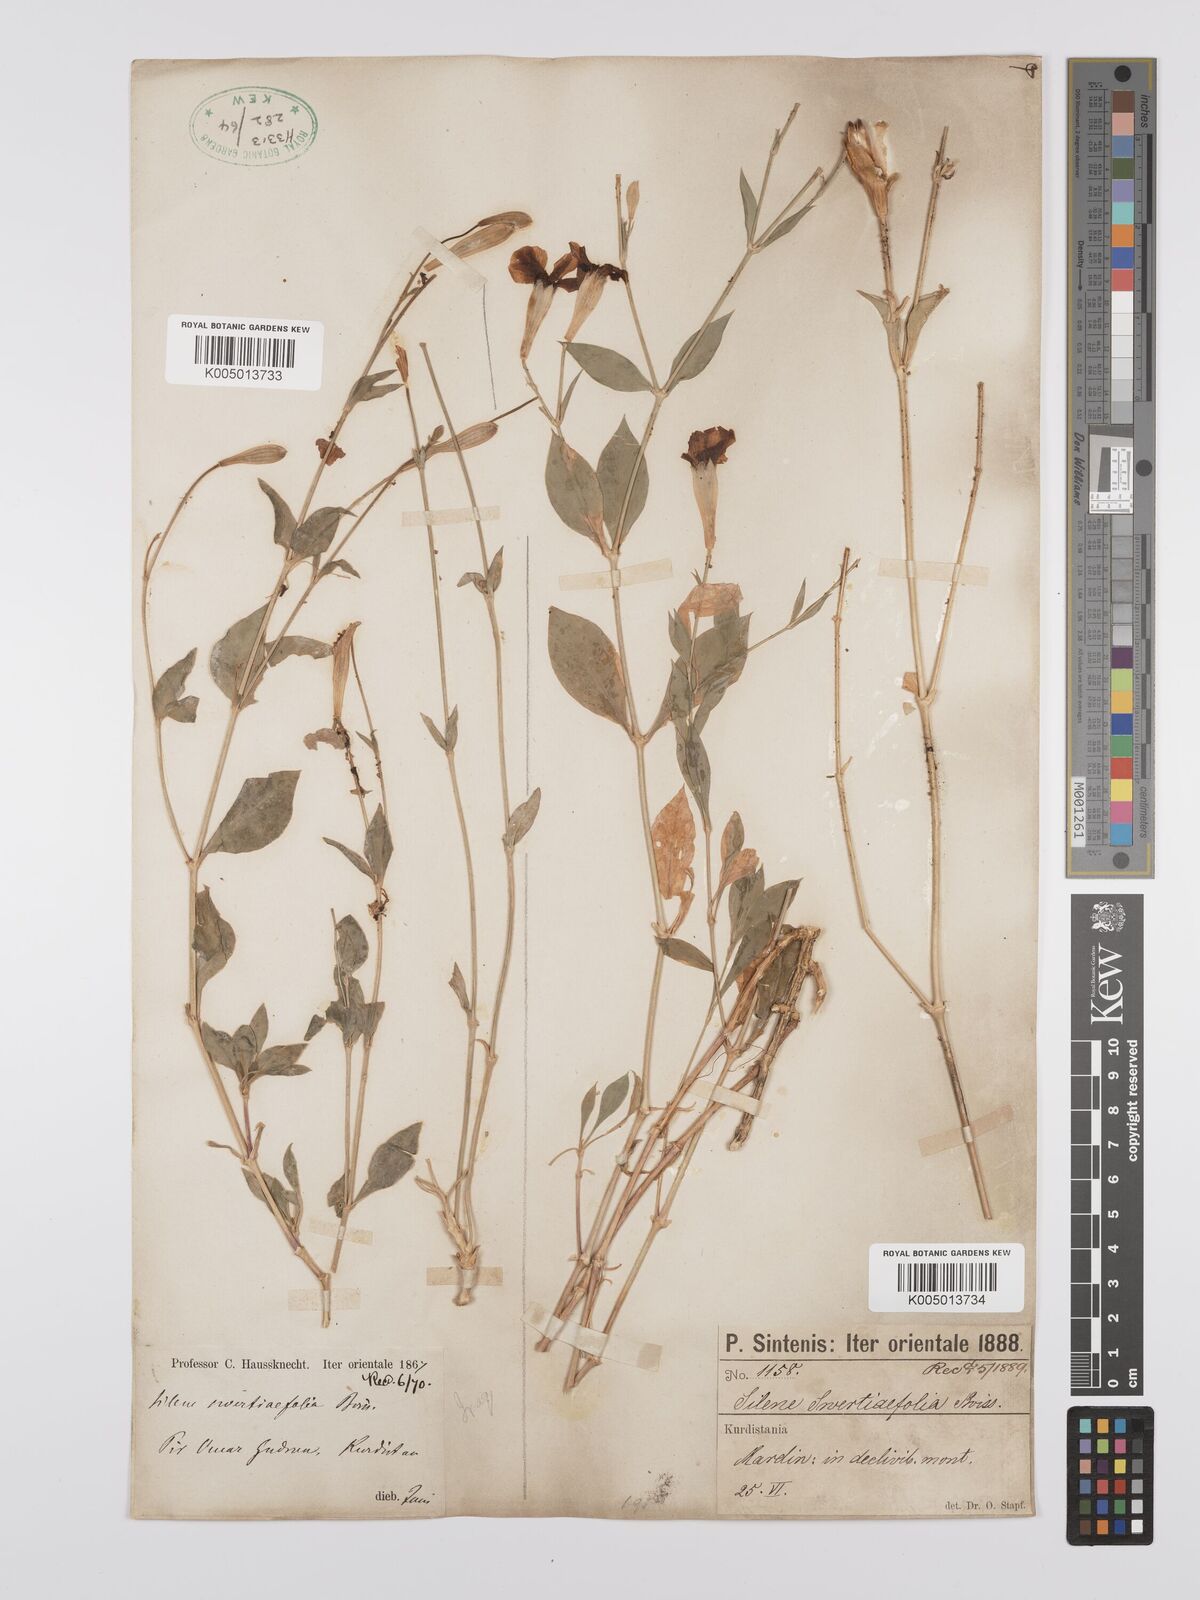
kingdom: Plantae
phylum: Tracheophyta
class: Magnoliopsida
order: Caryophyllales
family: Caryophyllaceae
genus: Silene
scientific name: Silene swertiifolia
